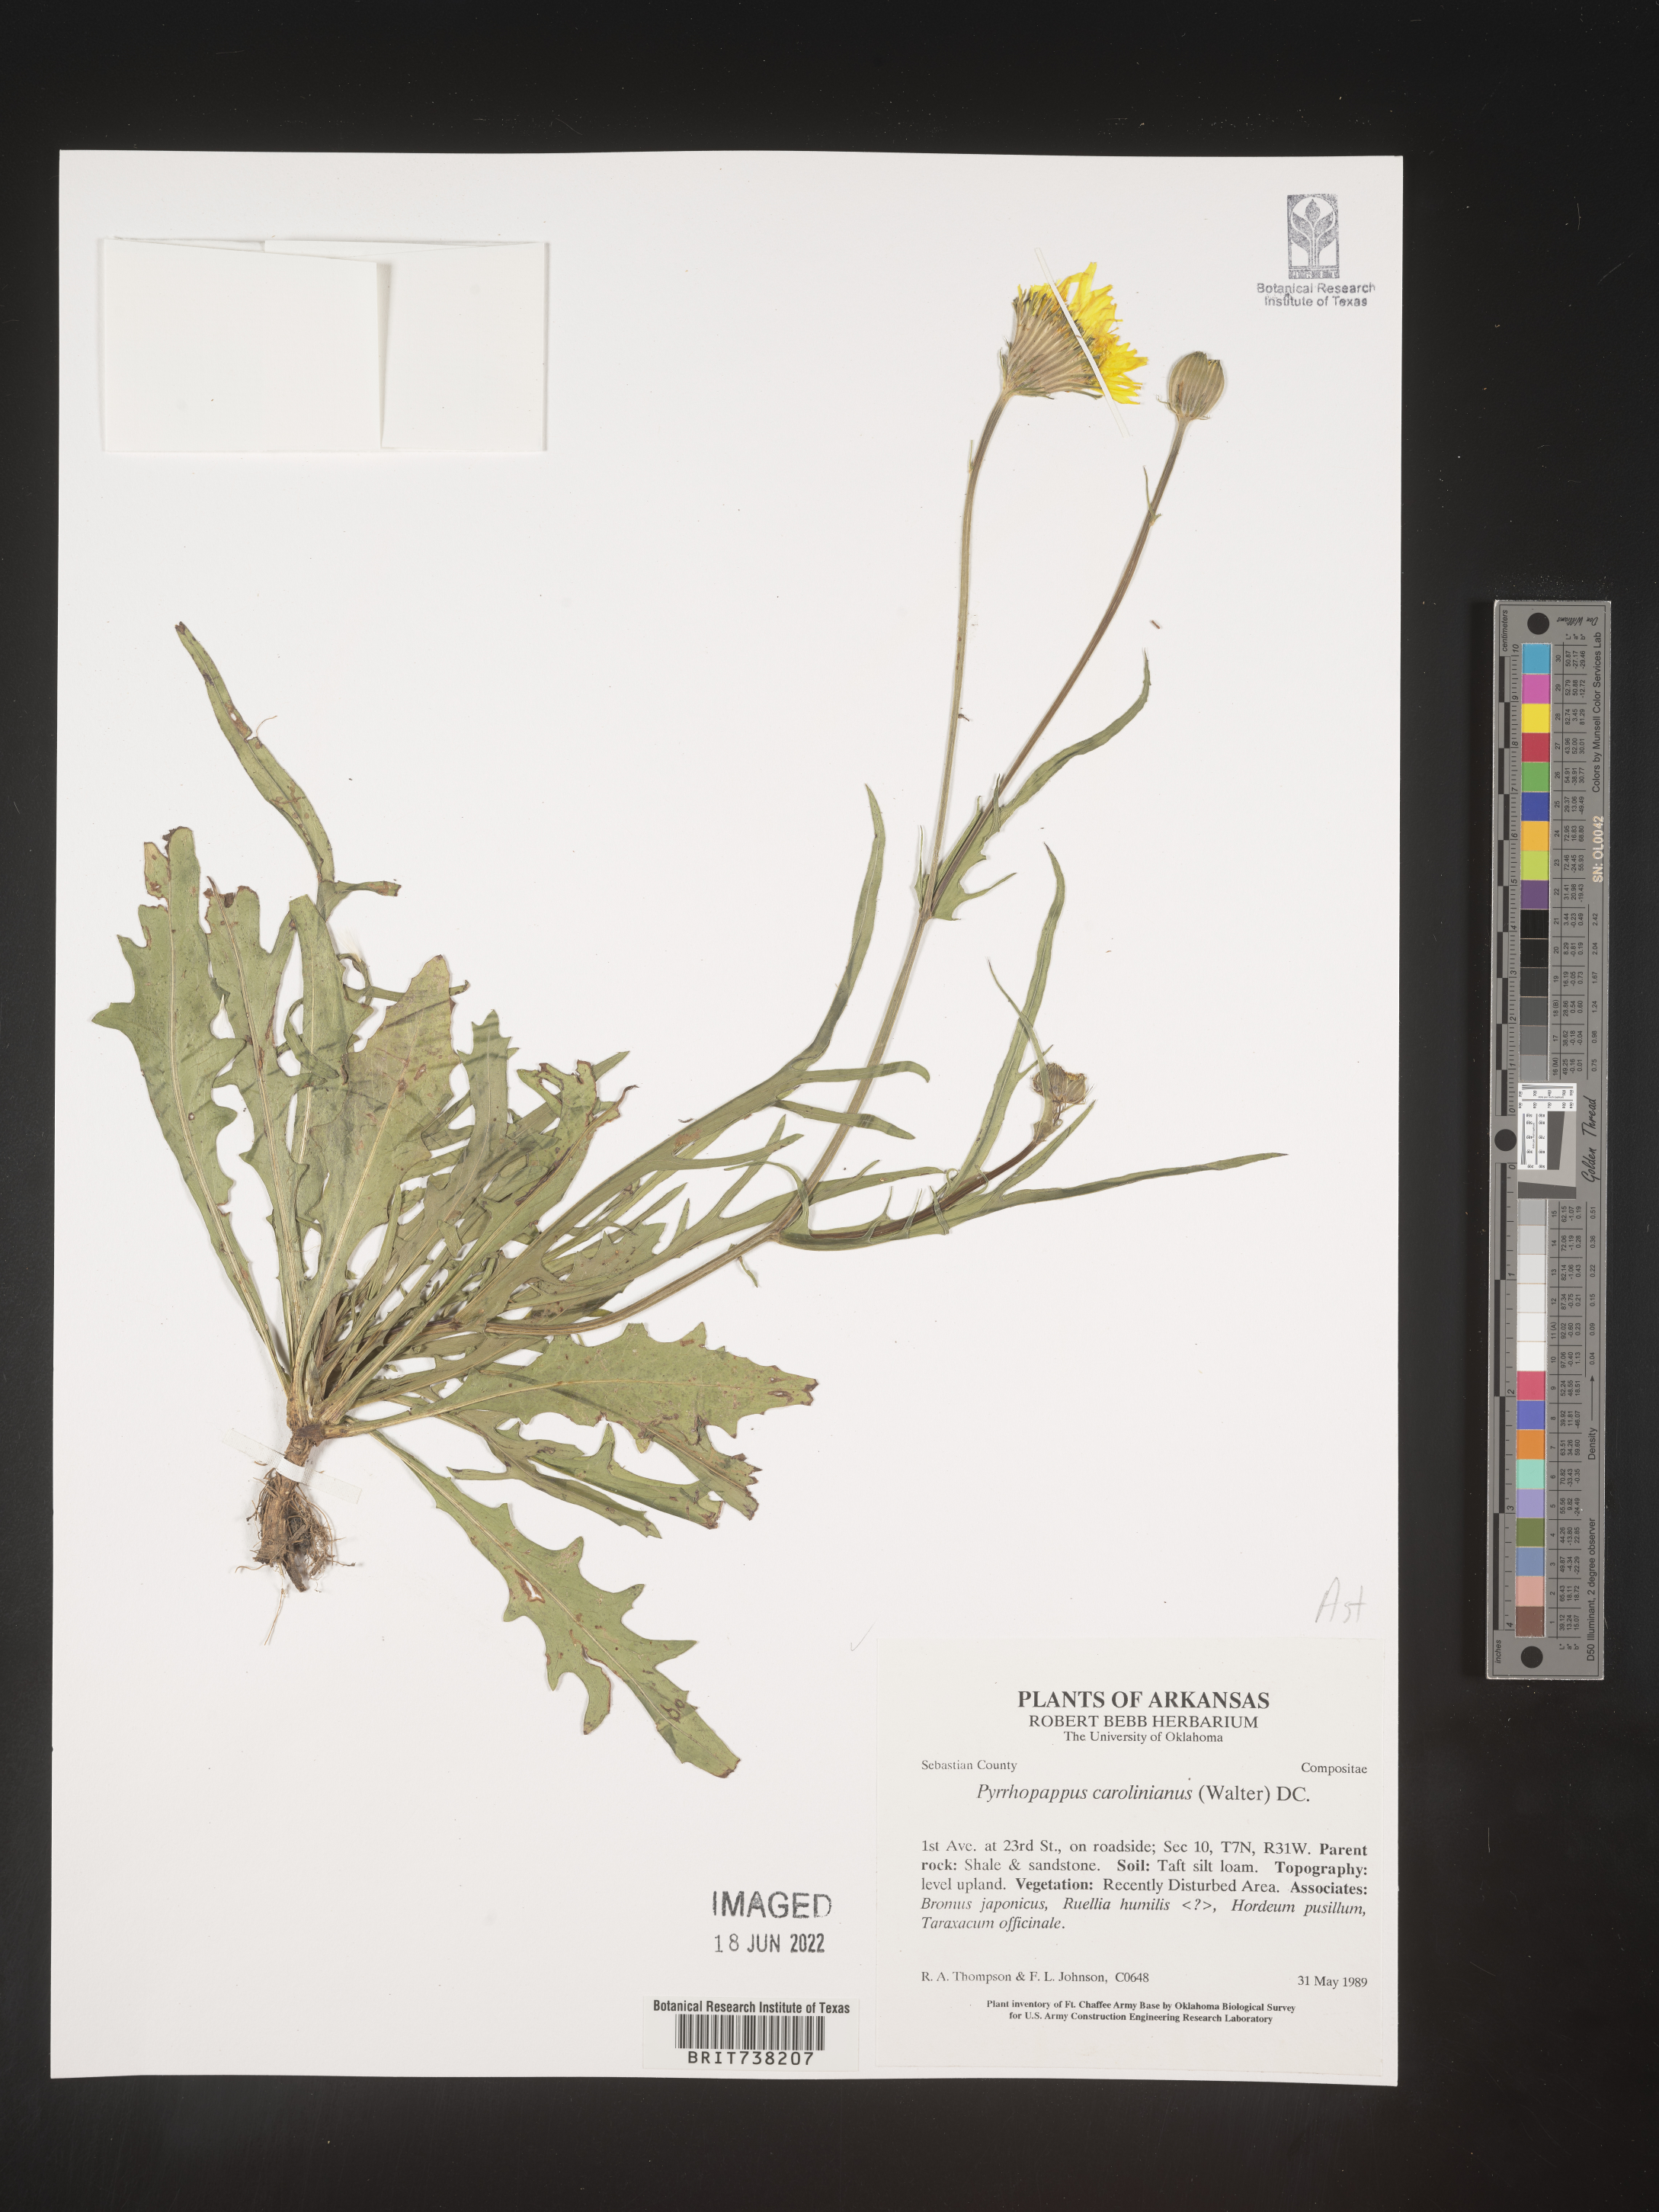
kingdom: Plantae
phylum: Tracheophyta
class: Magnoliopsida
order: Asterales
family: Asteraceae
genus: Pyrrhopappus
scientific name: Pyrrhopappus carolinianus
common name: Carolina desert-chicory
